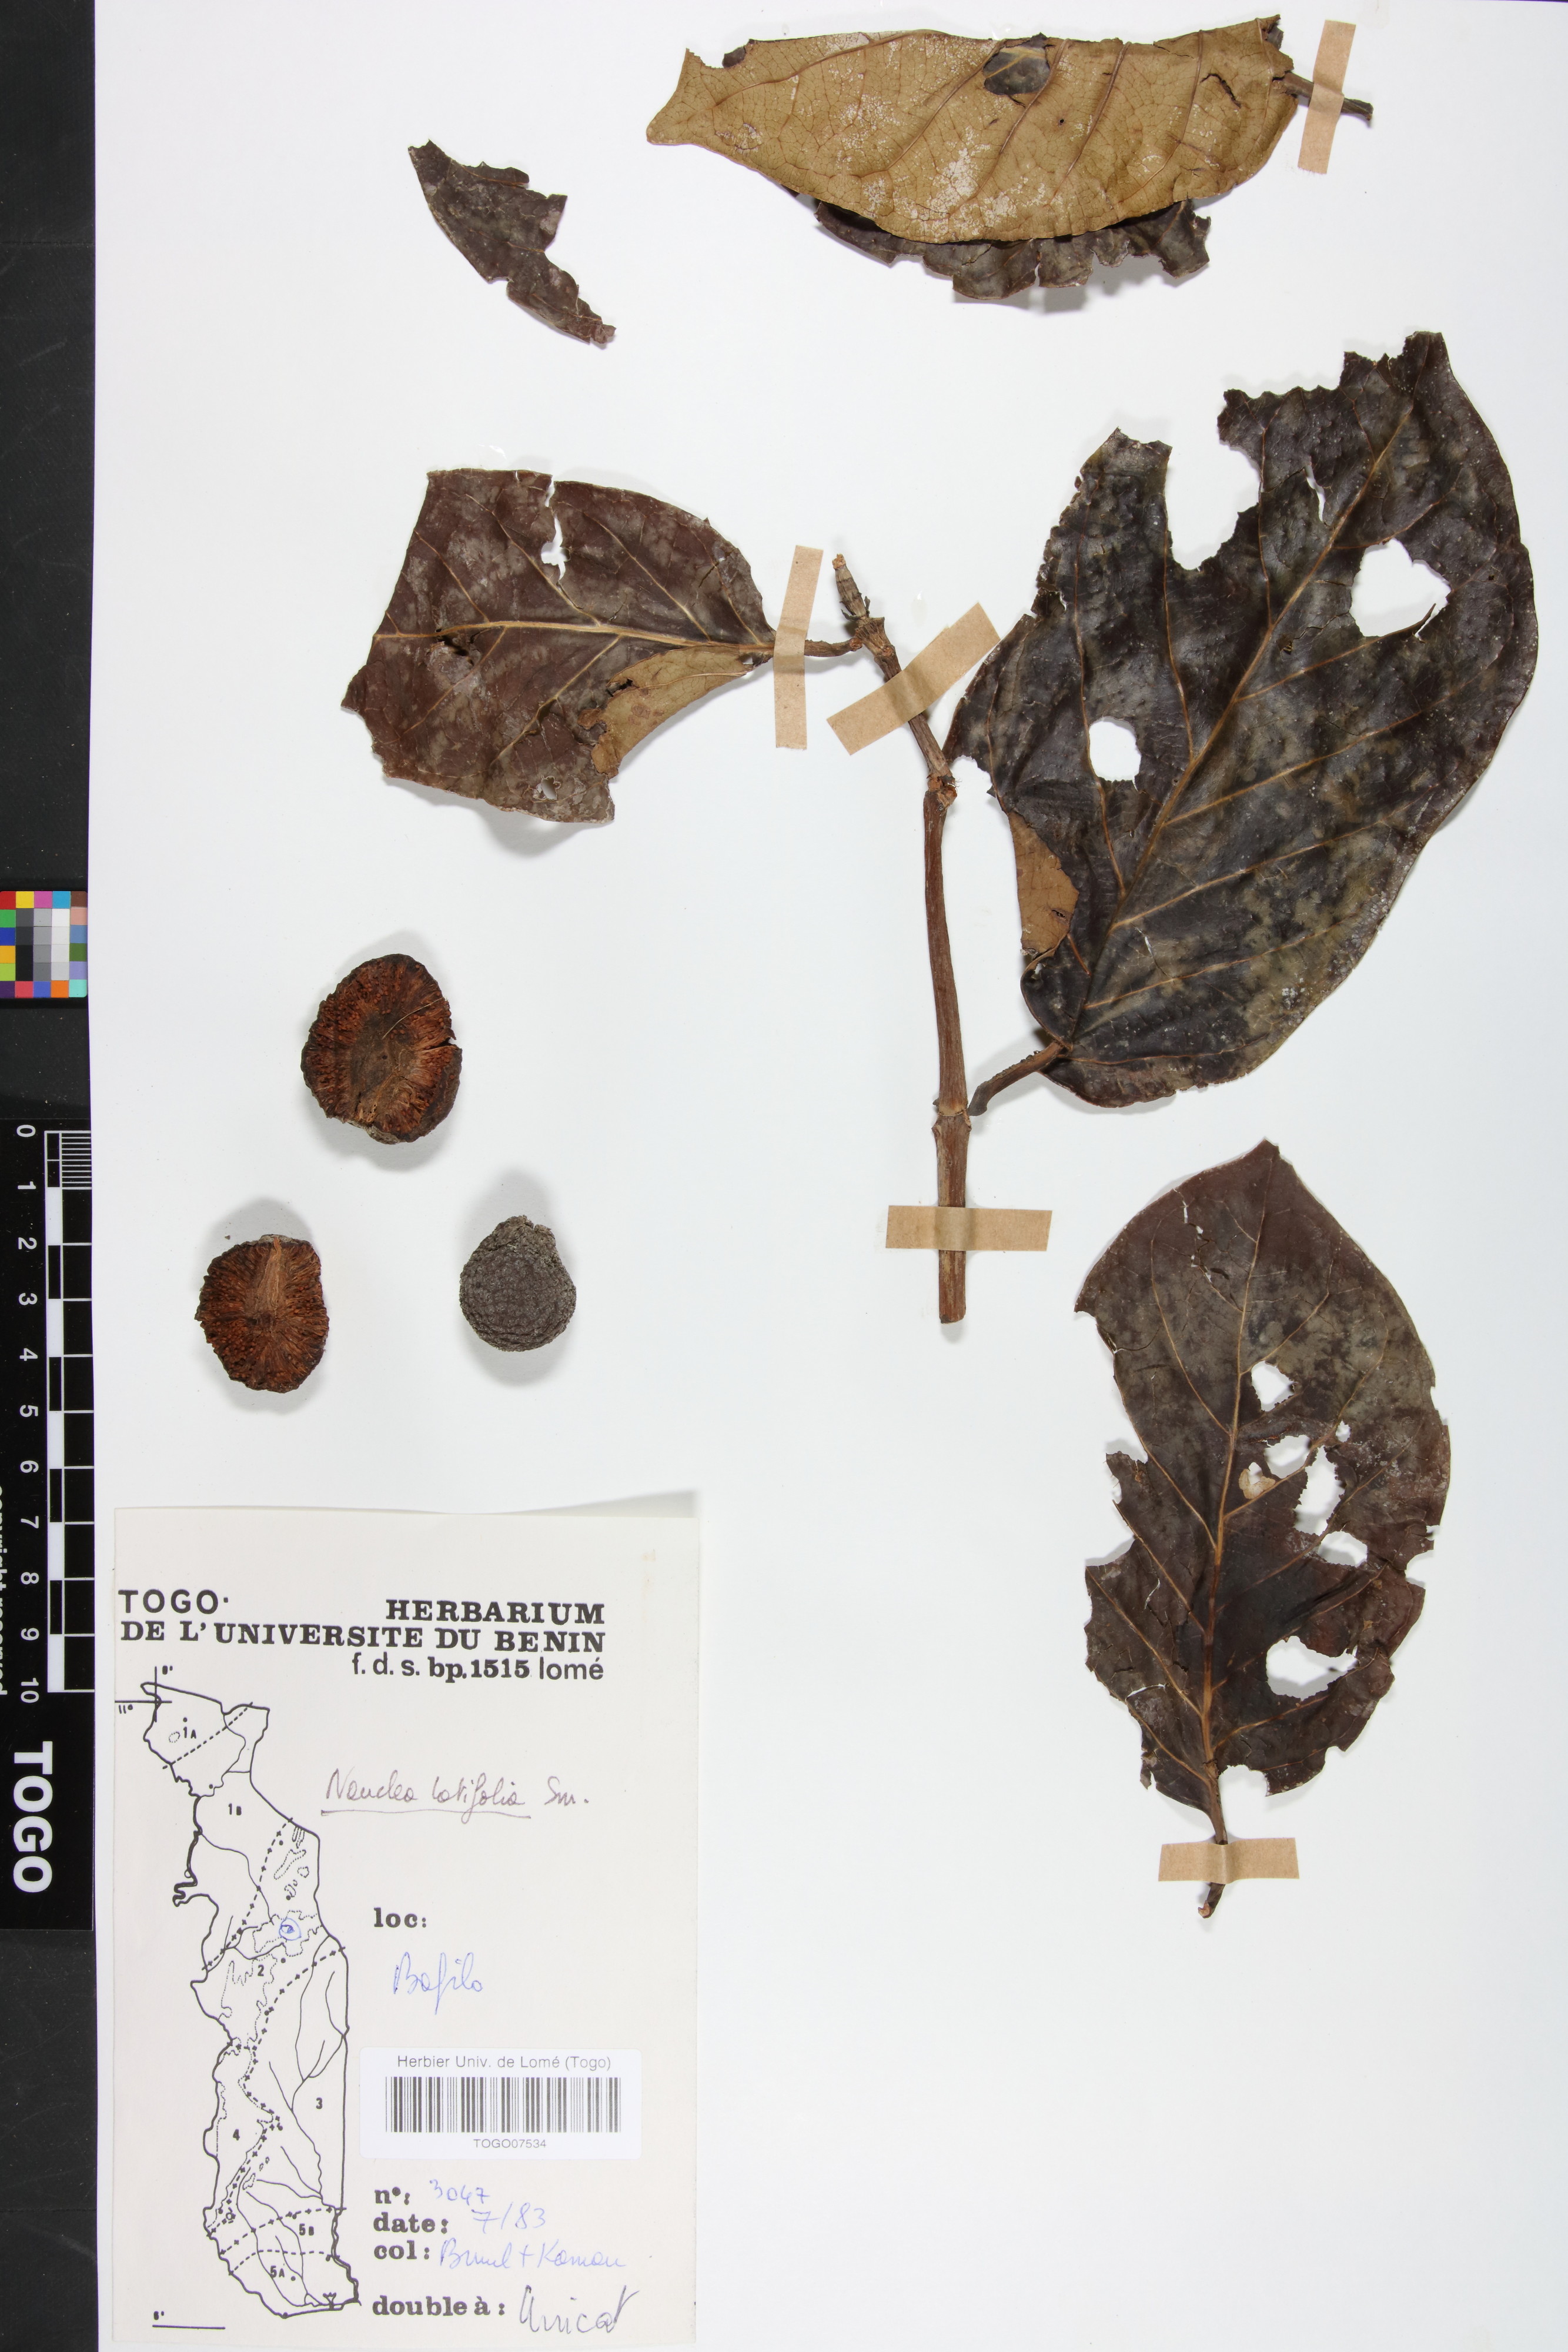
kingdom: Plantae
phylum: Tracheophyta
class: Magnoliopsida
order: Gentianales
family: Rubiaceae
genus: Nauclea
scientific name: Nauclea latifolia
